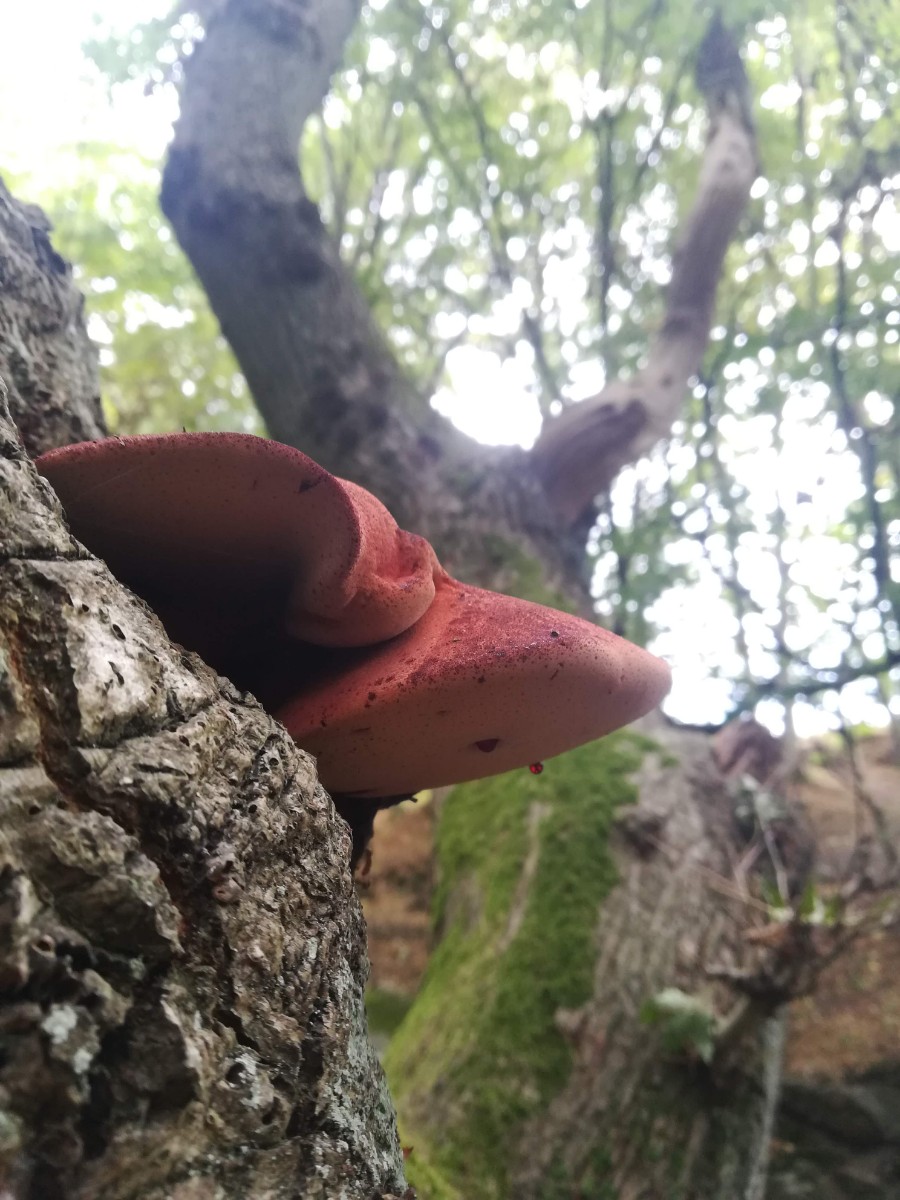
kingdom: Fungi
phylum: Basidiomycota
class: Agaricomycetes
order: Agaricales
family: Fistulinaceae
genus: Fistulina
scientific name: Fistulina hepatica
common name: oksetunge
